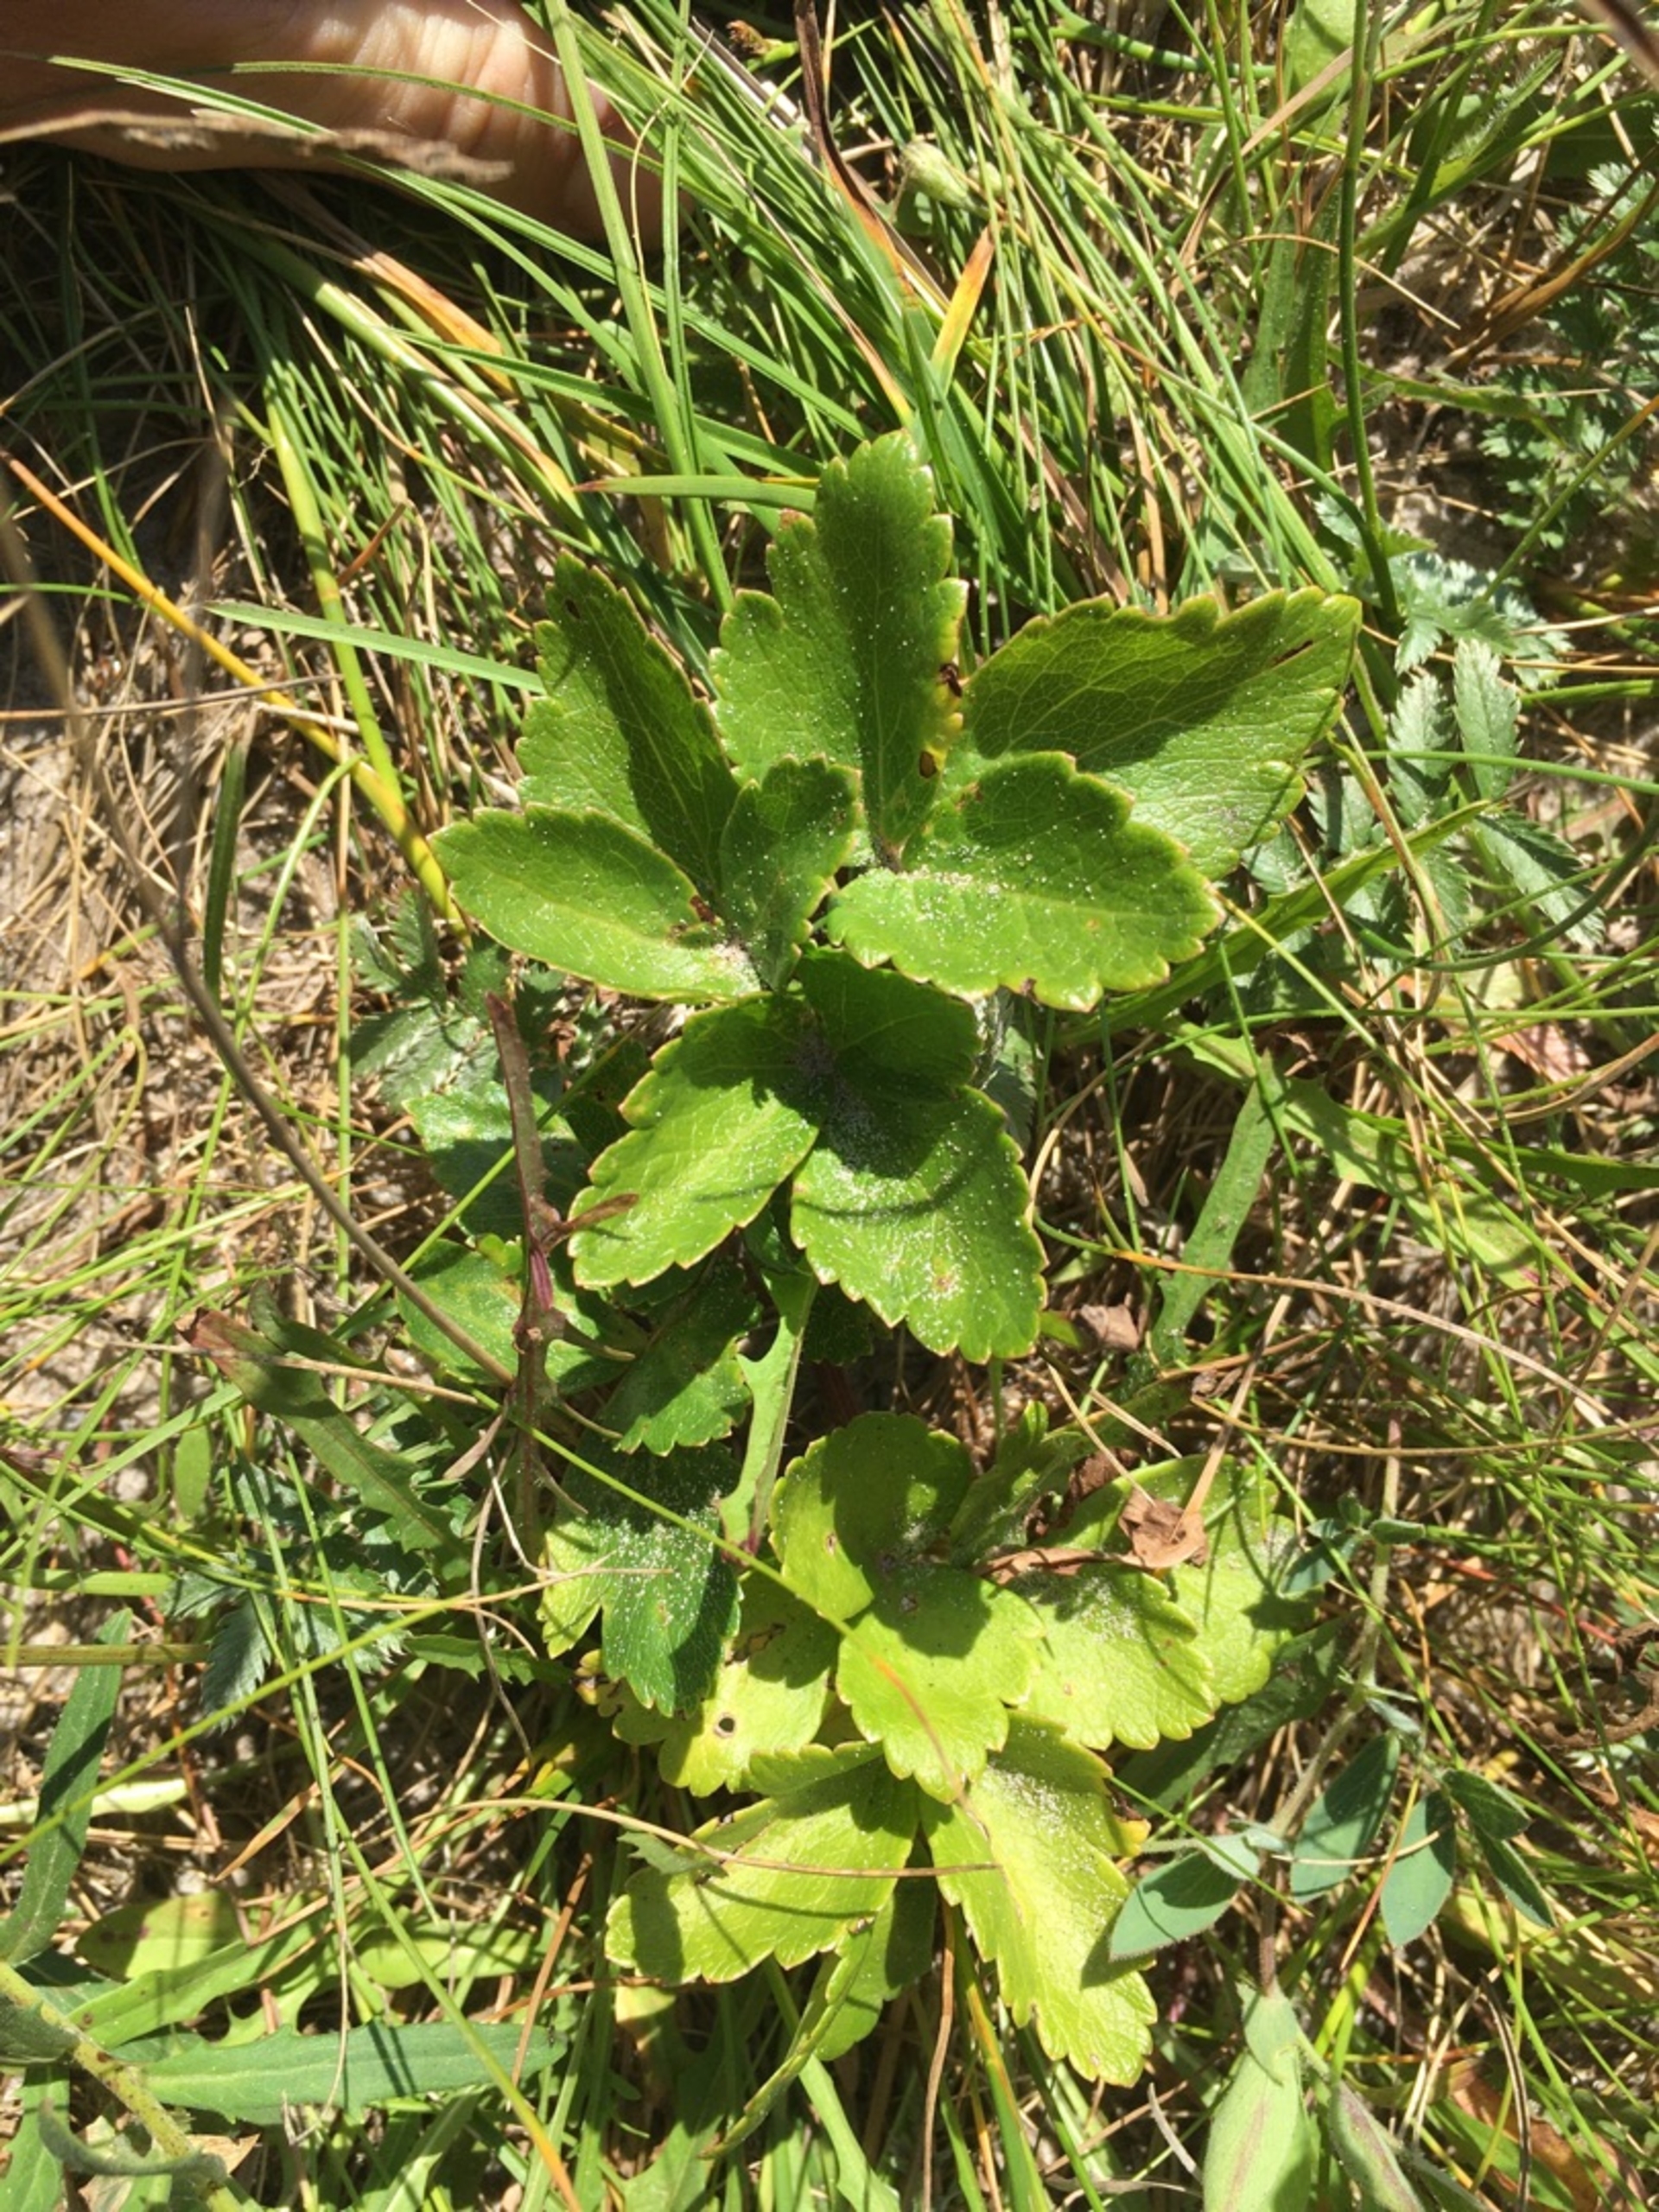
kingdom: Plantae
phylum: Tracheophyta
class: Magnoliopsida
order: Apiales
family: Apiaceae
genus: Ligusticum
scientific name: Ligusticum scothicum
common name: Skotsk lostilk
